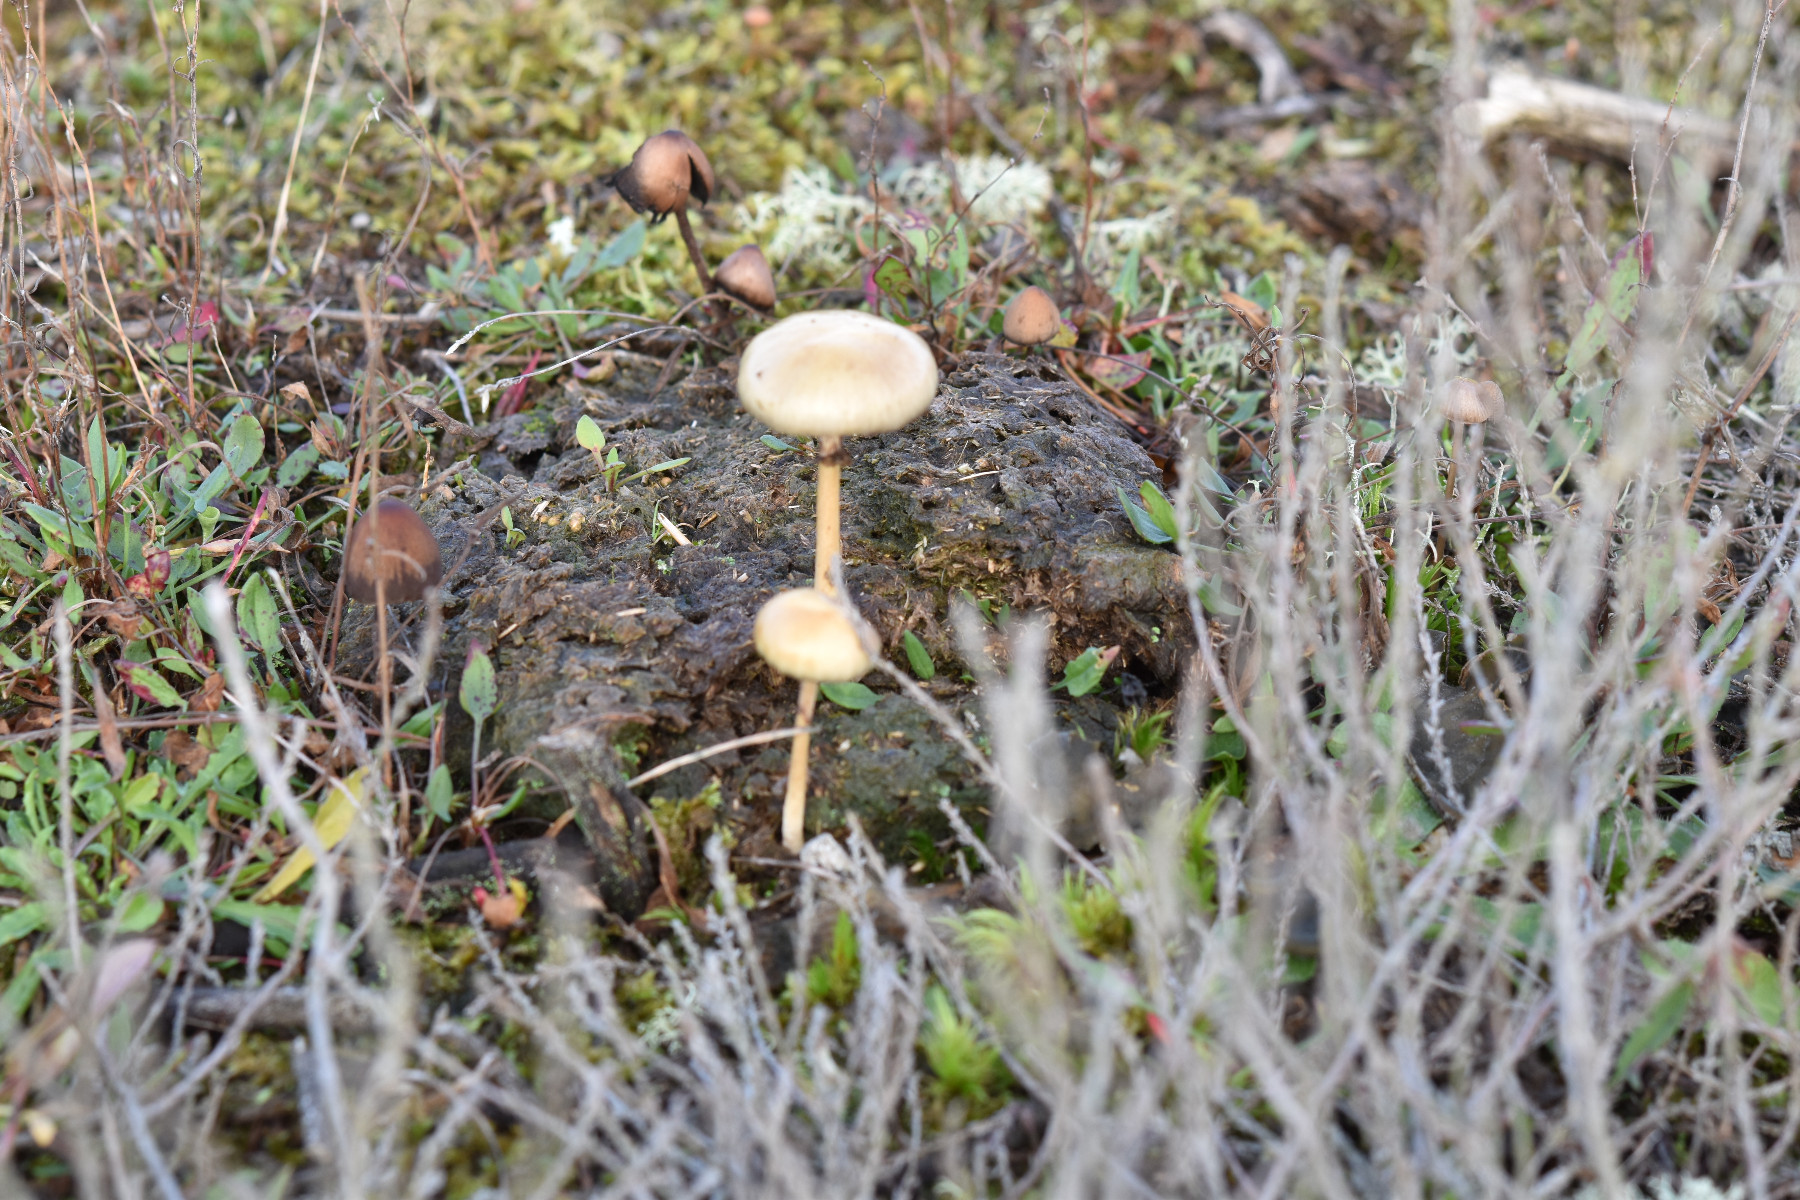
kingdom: Fungi
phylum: Basidiomycota
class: Agaricomycetes
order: Agaricales
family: Strophariaceae
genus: Protostropharia
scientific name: Protostropharia semiglobata
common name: halvkugleformet bredblad
